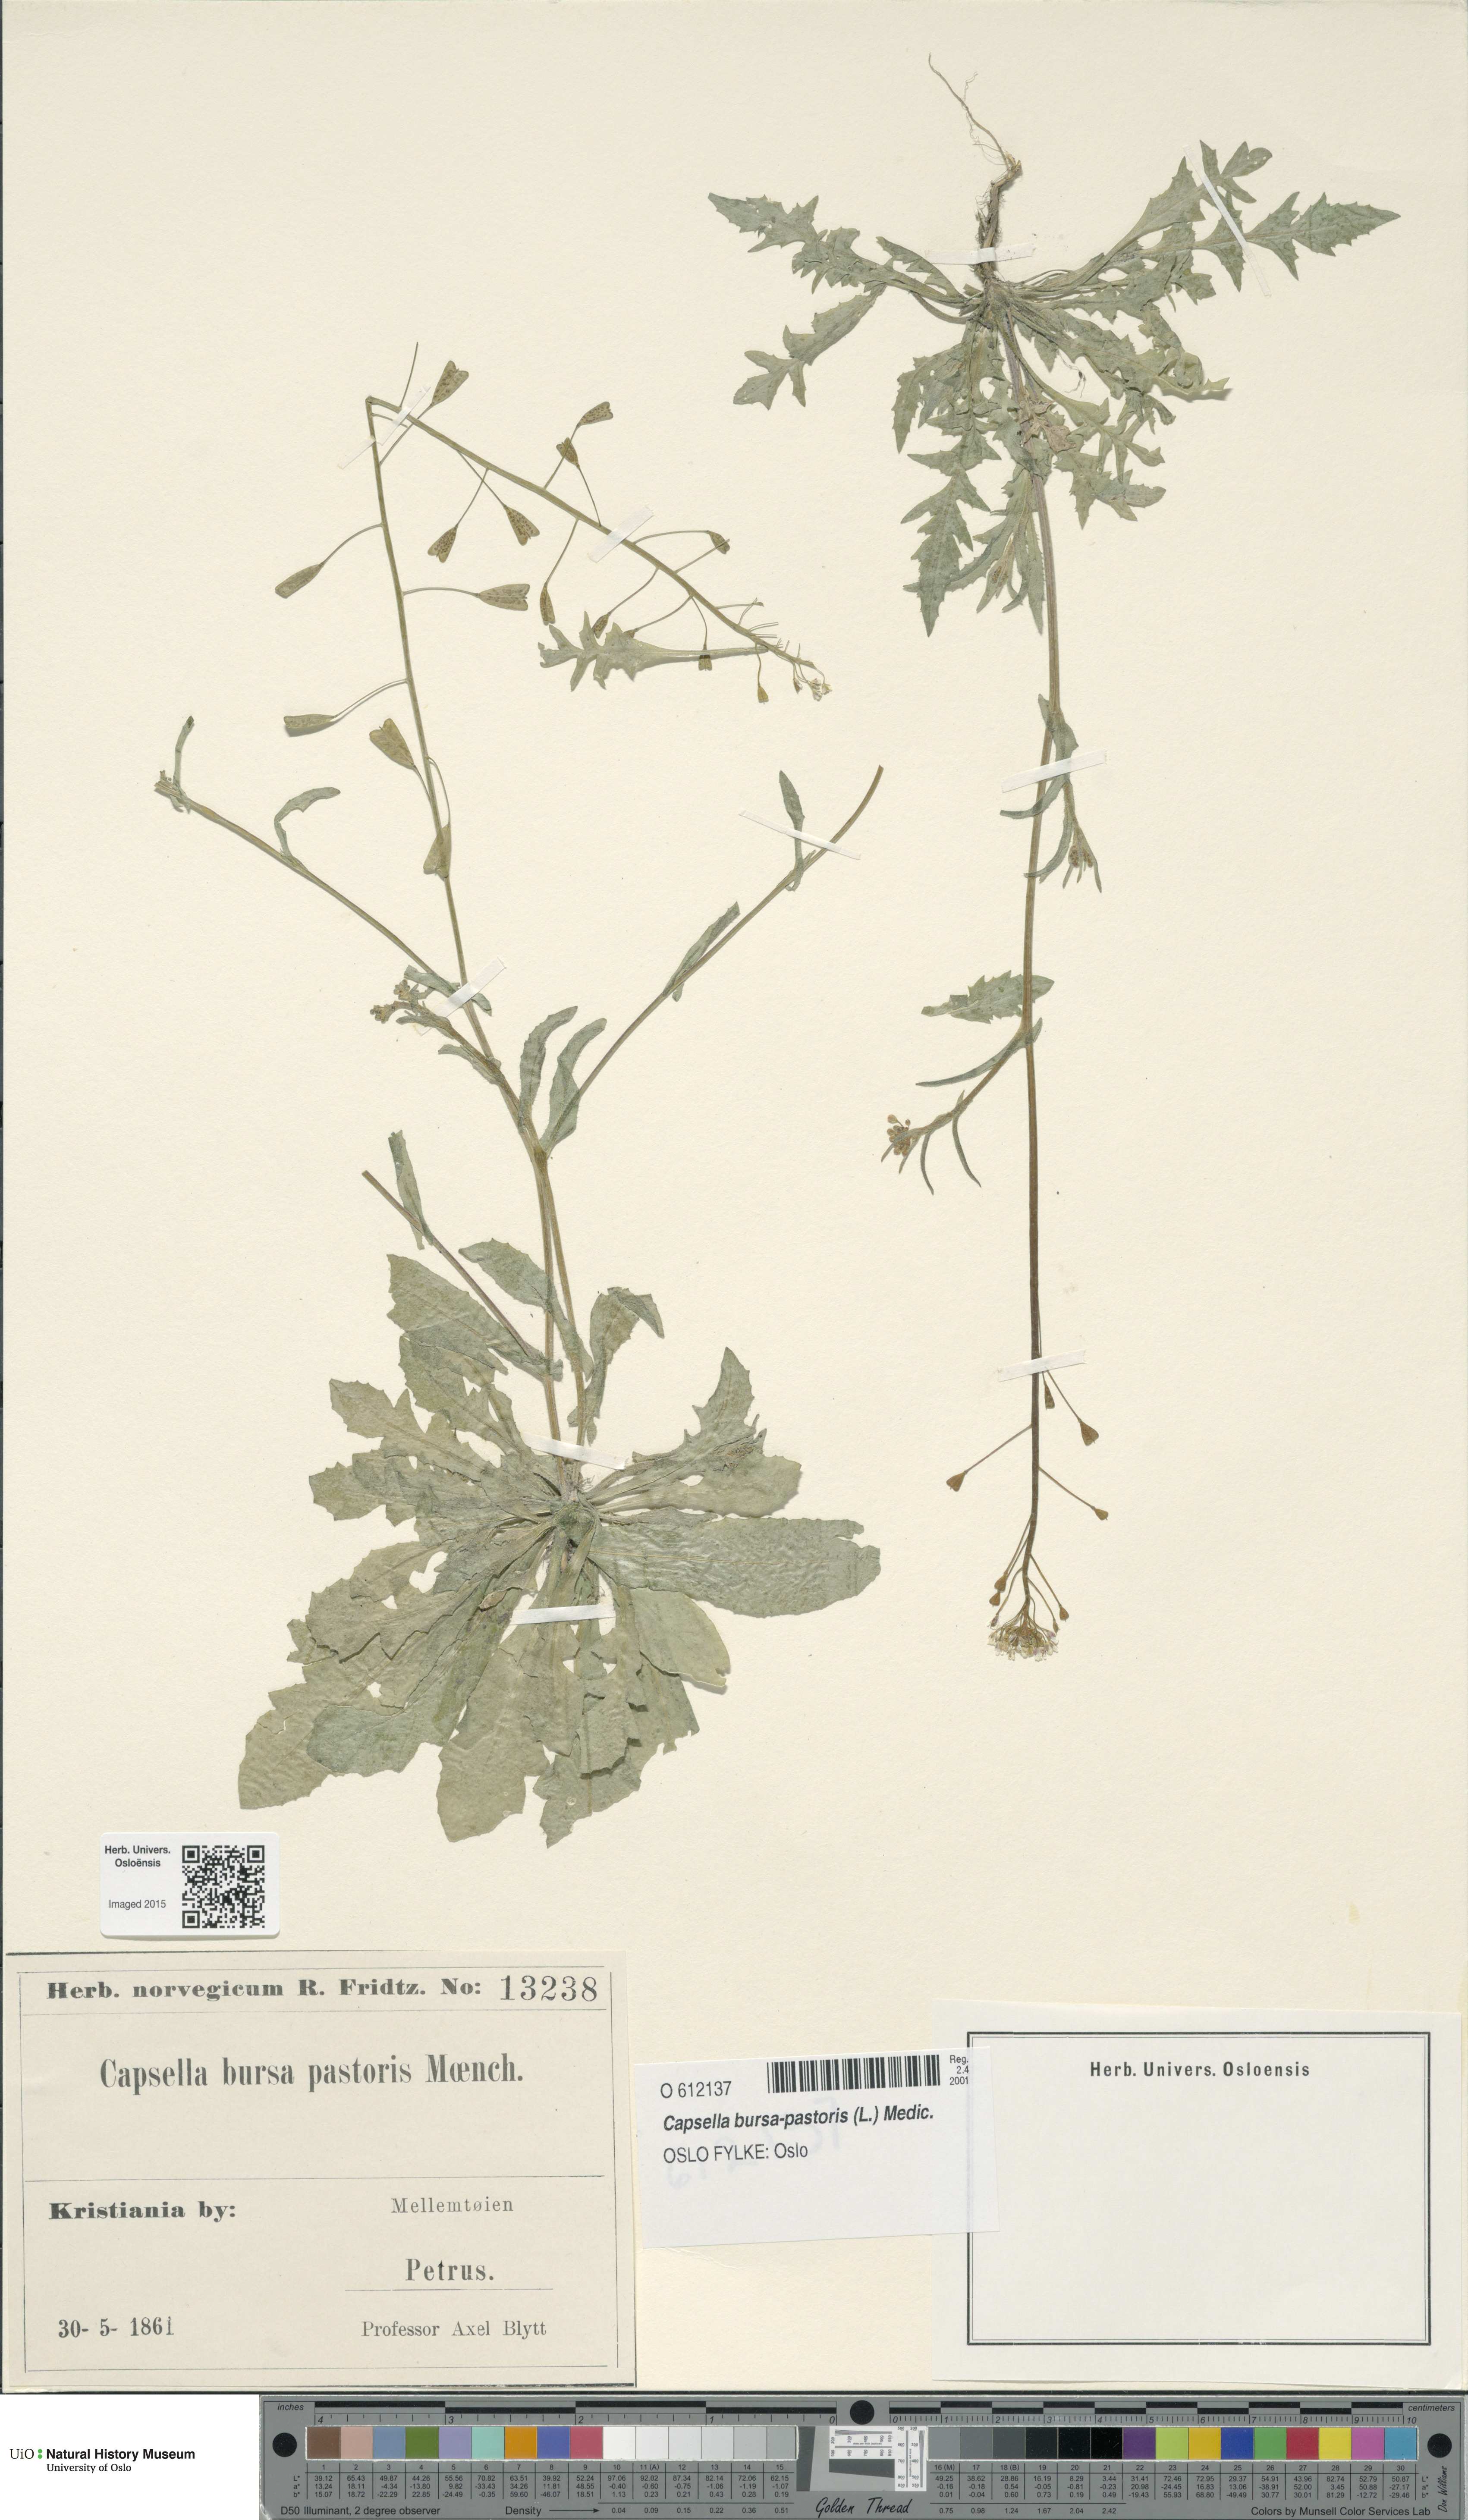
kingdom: Plantae
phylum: Tracheophyta
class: Magnoliopsida
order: Brassicales
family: Brassicaceae
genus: Capsella
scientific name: Capsella bursa-pastoris
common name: Shepherd's purse
